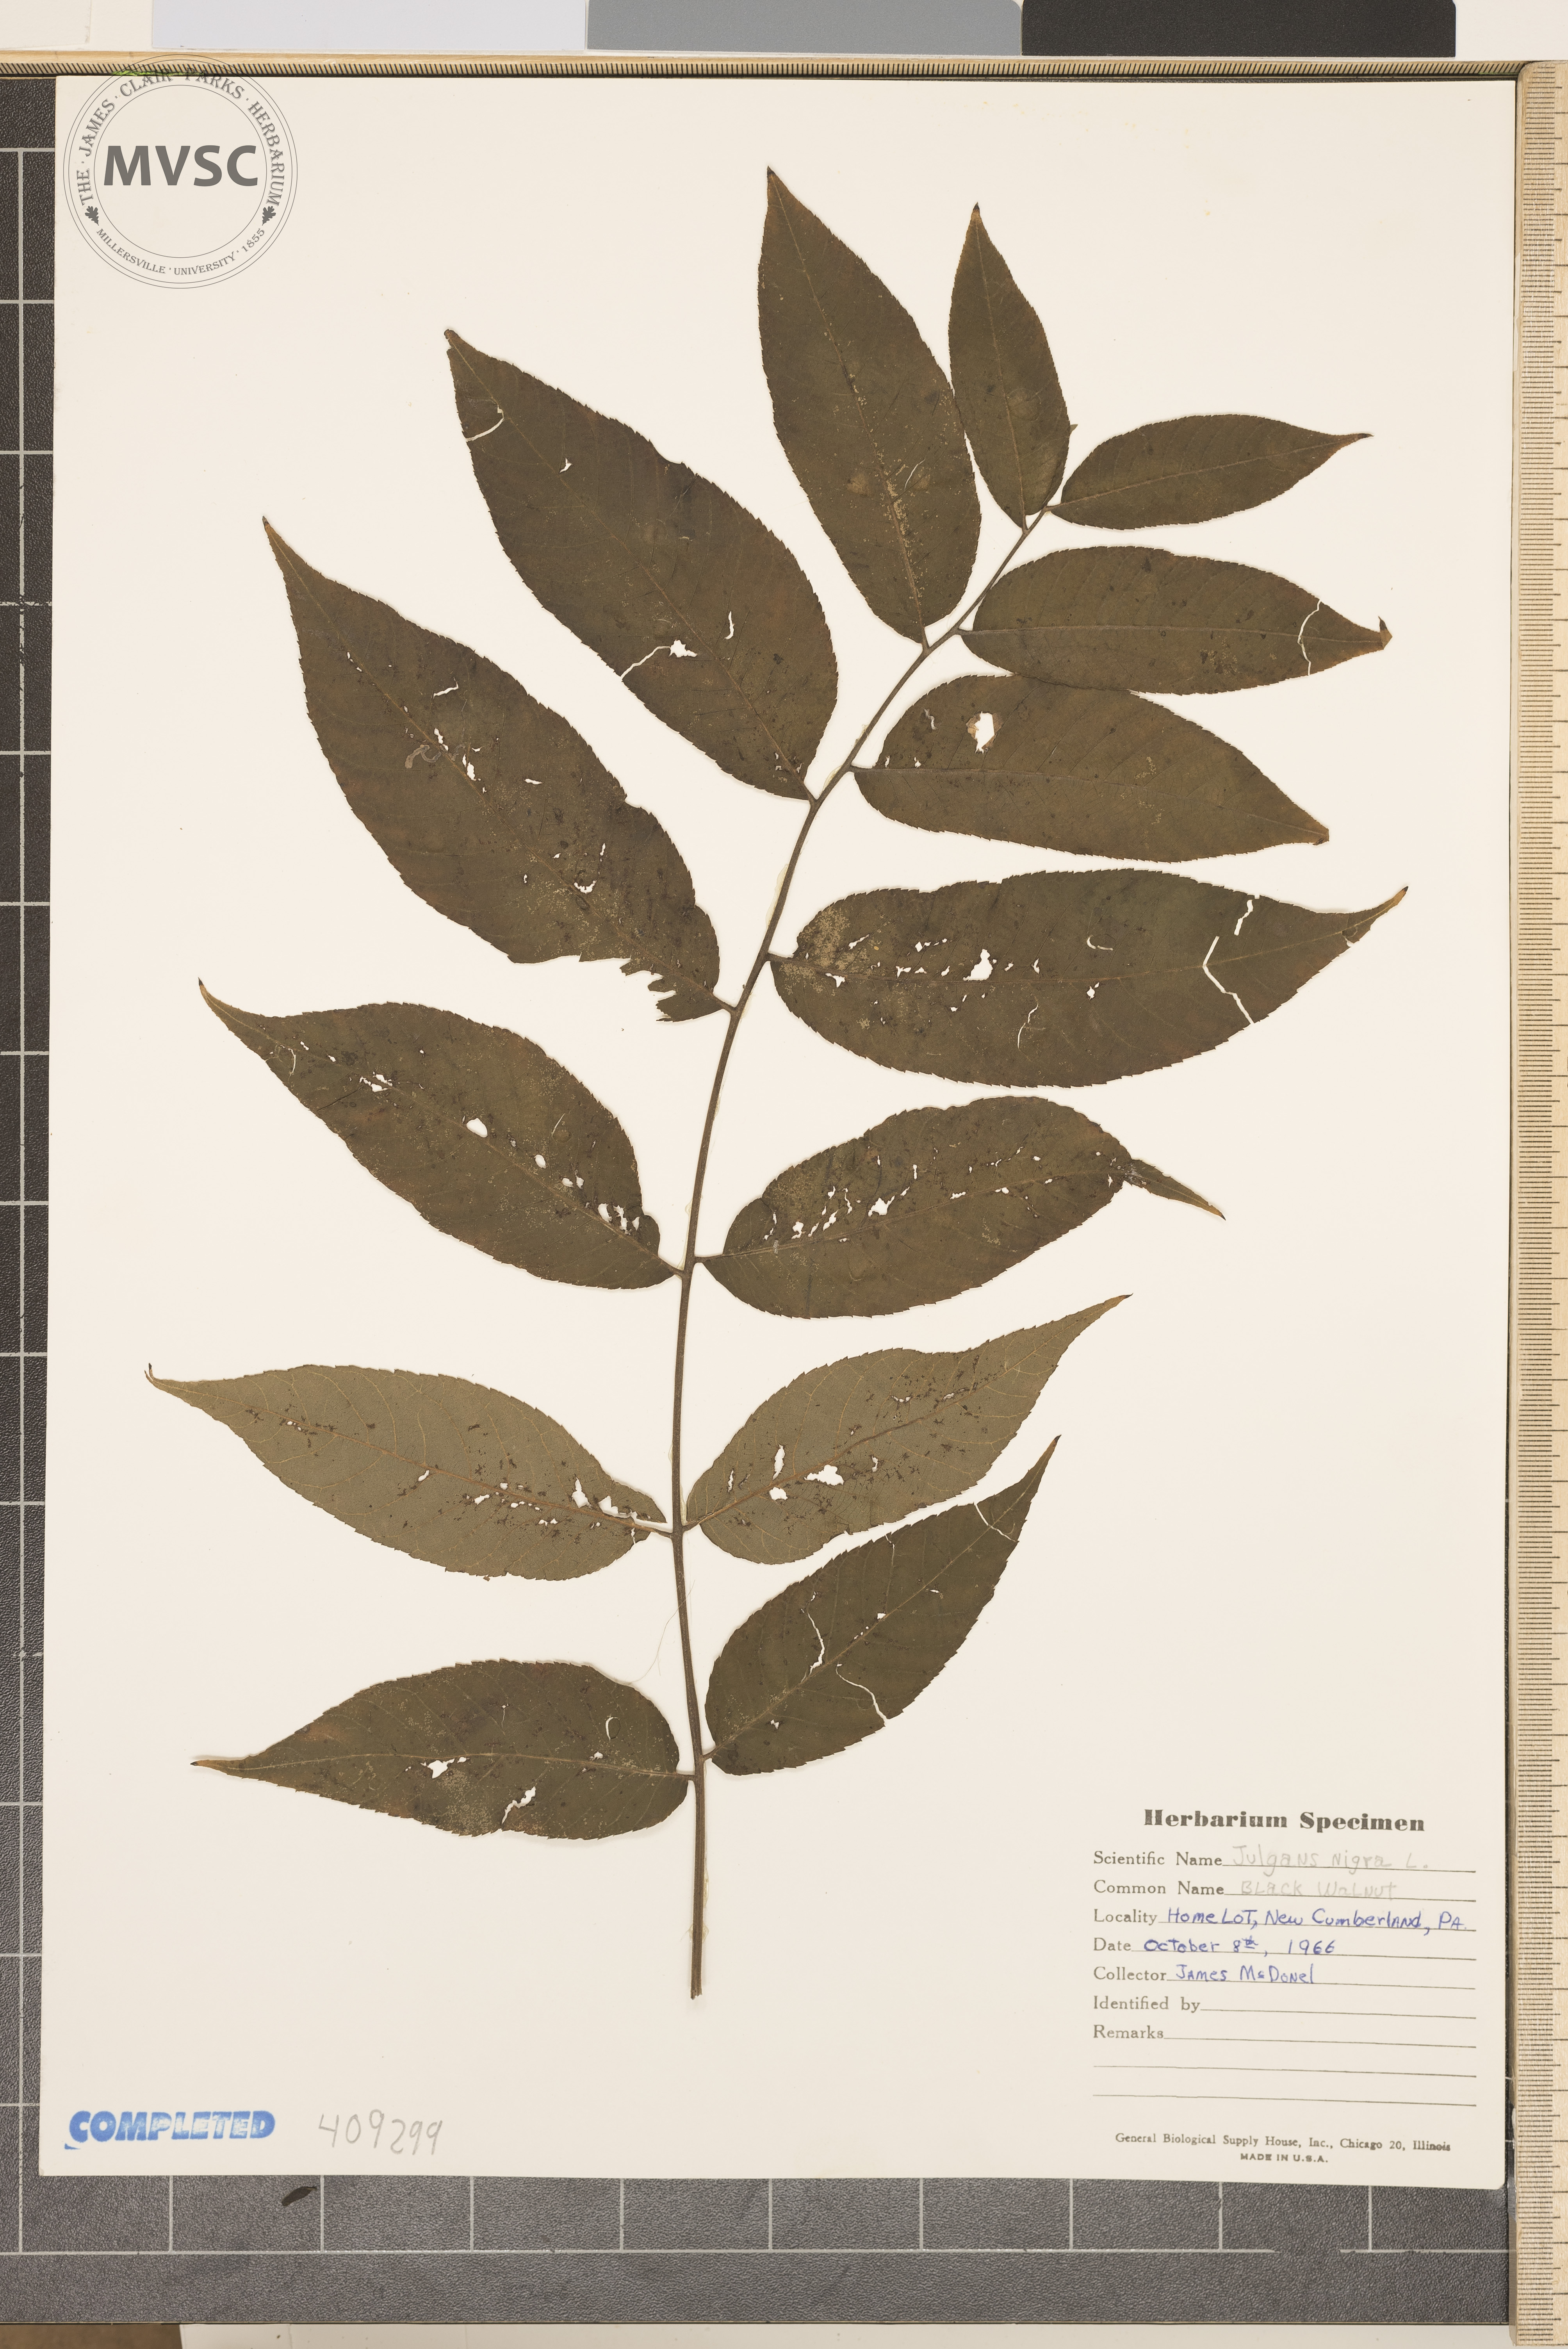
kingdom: Plantae
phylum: Tracheophyta
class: Magnoliopsida
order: Fagales
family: Juglandaceae
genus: Juglans
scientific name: Juglans nigra
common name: Black walnut
